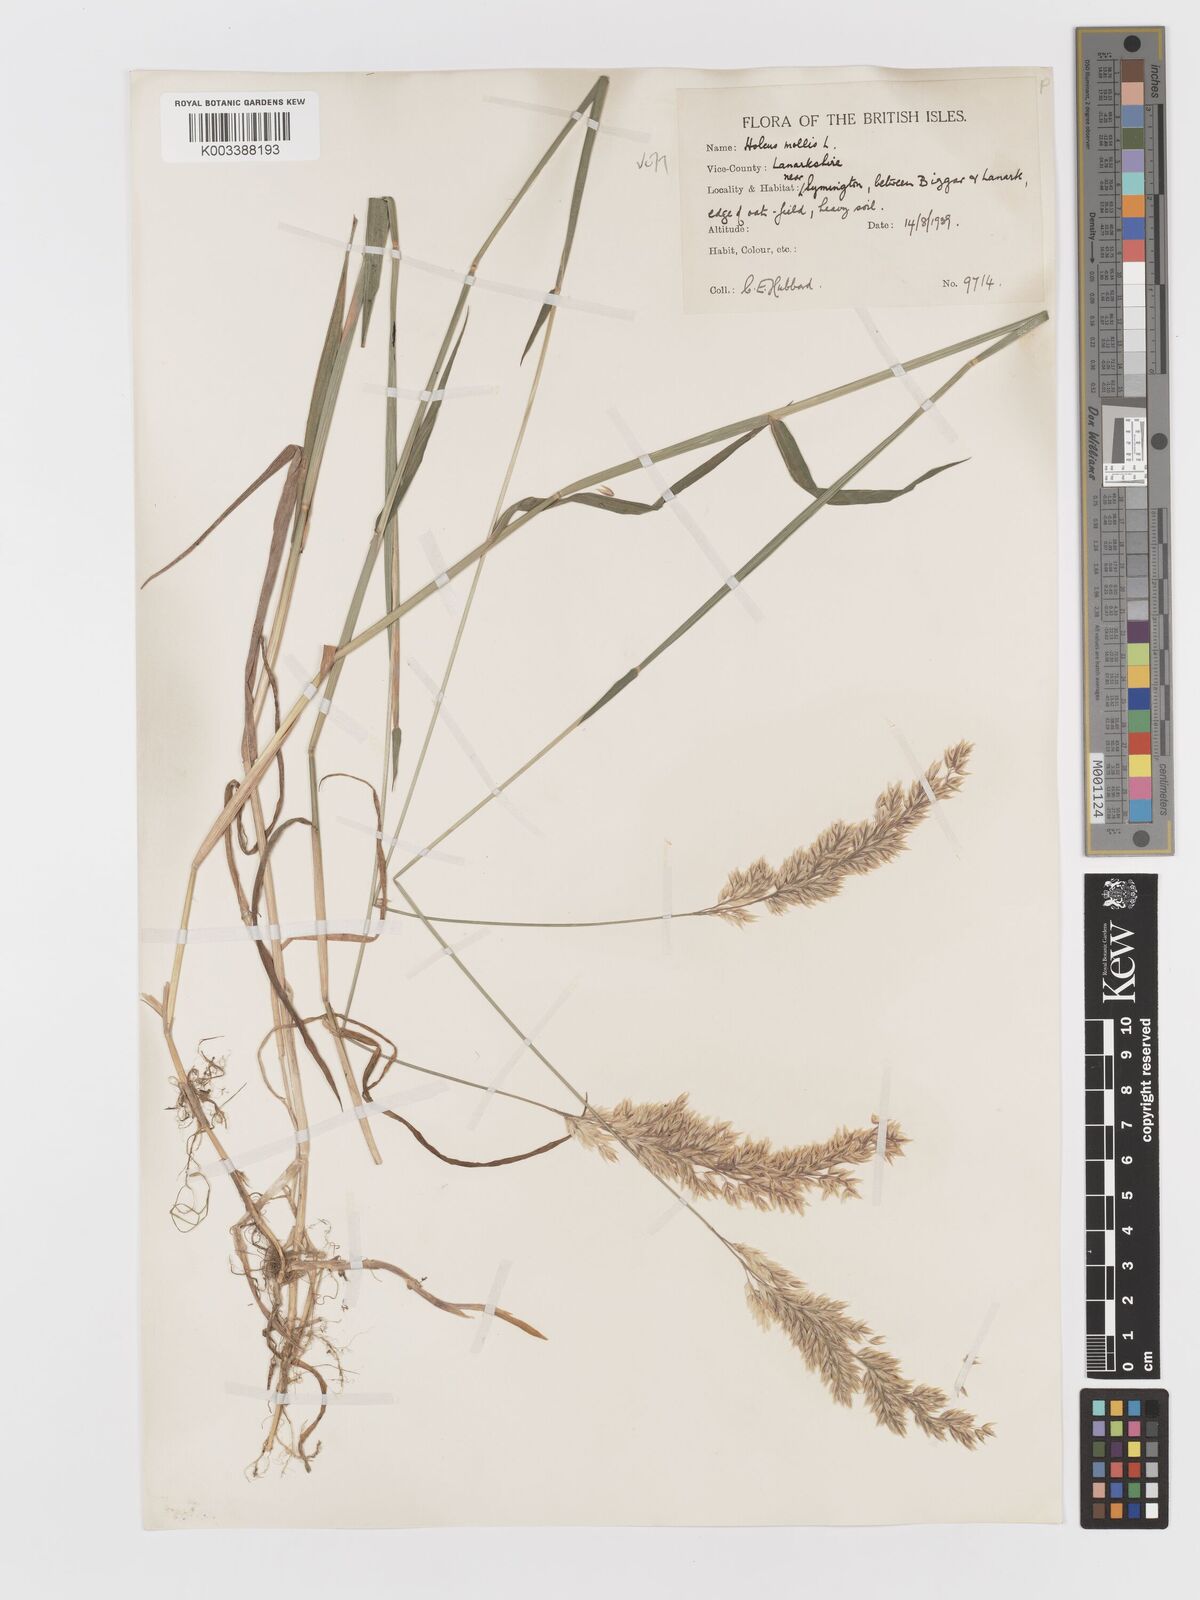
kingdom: Plantae
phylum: Tracheophyta
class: Liliopsida
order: Poales
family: Poaceae
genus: Holcus
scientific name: Holcus mollis
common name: Creeping velvetgrass
